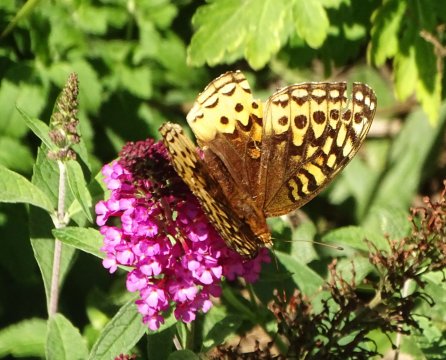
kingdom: Animalia
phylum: Arthropoda
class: Insecta
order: Lepidoptera
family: Nymphalidae
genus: Speyeria
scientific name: Speyeria cybele
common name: Great Spangled Fritillary
